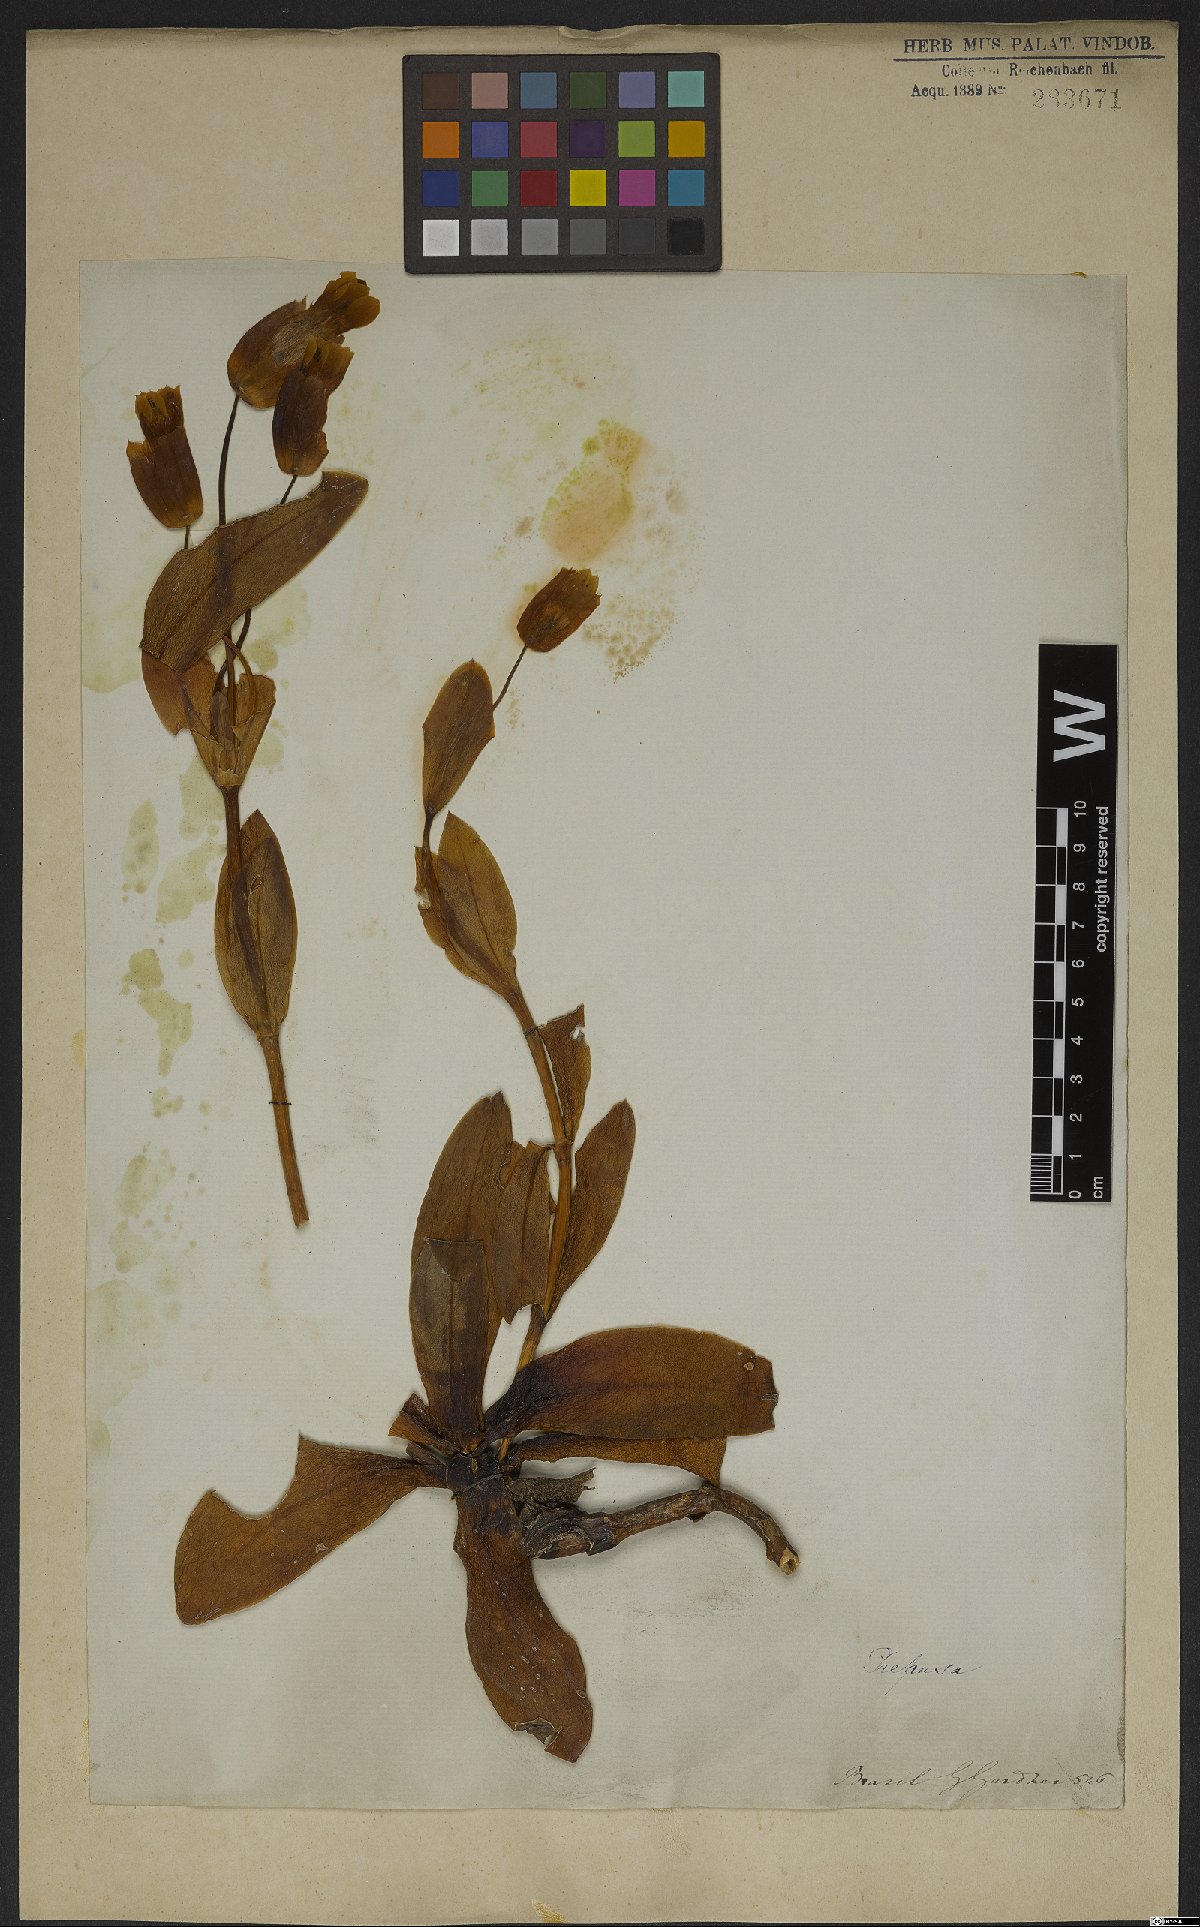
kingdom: Plantae
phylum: Tracheophyta
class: Magnoliopsida
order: Gentianales
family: Gentianaceae
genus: Prepusa
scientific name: Prepusa connata
